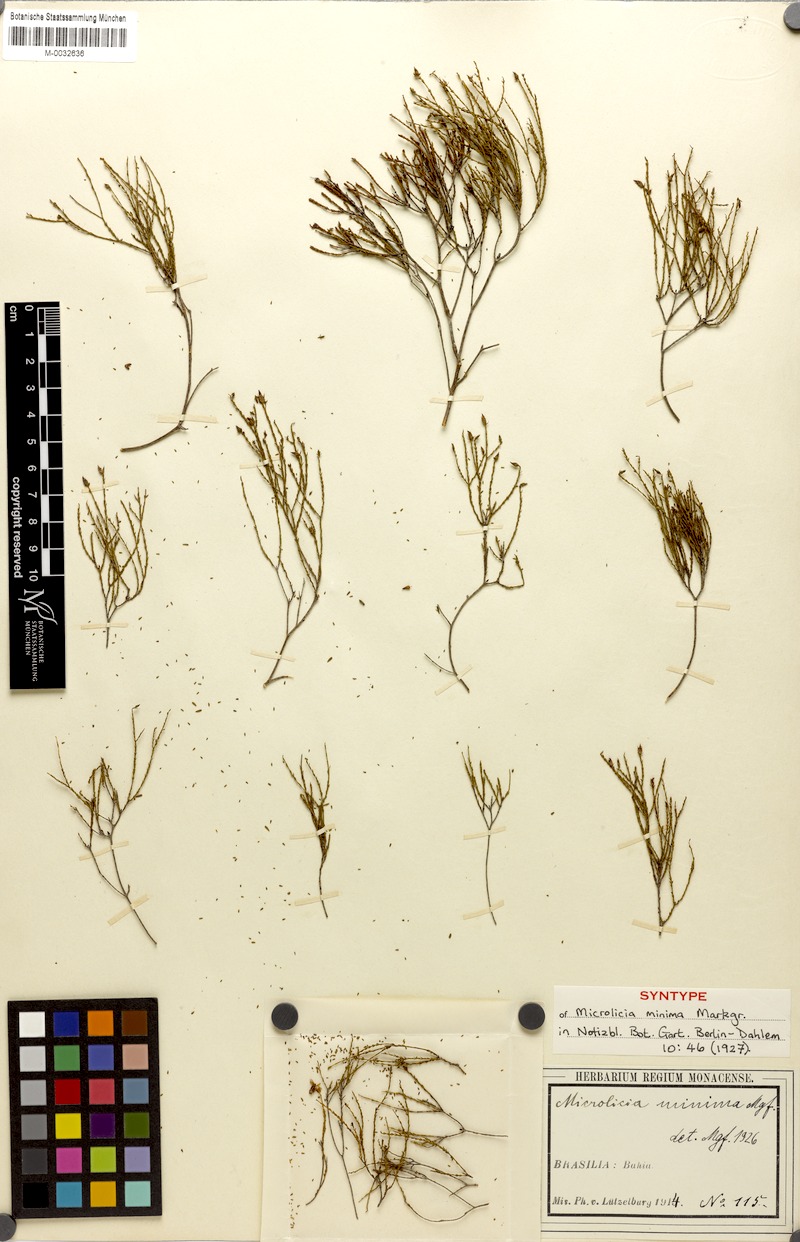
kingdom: Plantae
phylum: Tracheophyta
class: Magnoliopsida
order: Myrtales
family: Melastomataceae
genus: Microlicia
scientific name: Microlicia minima
